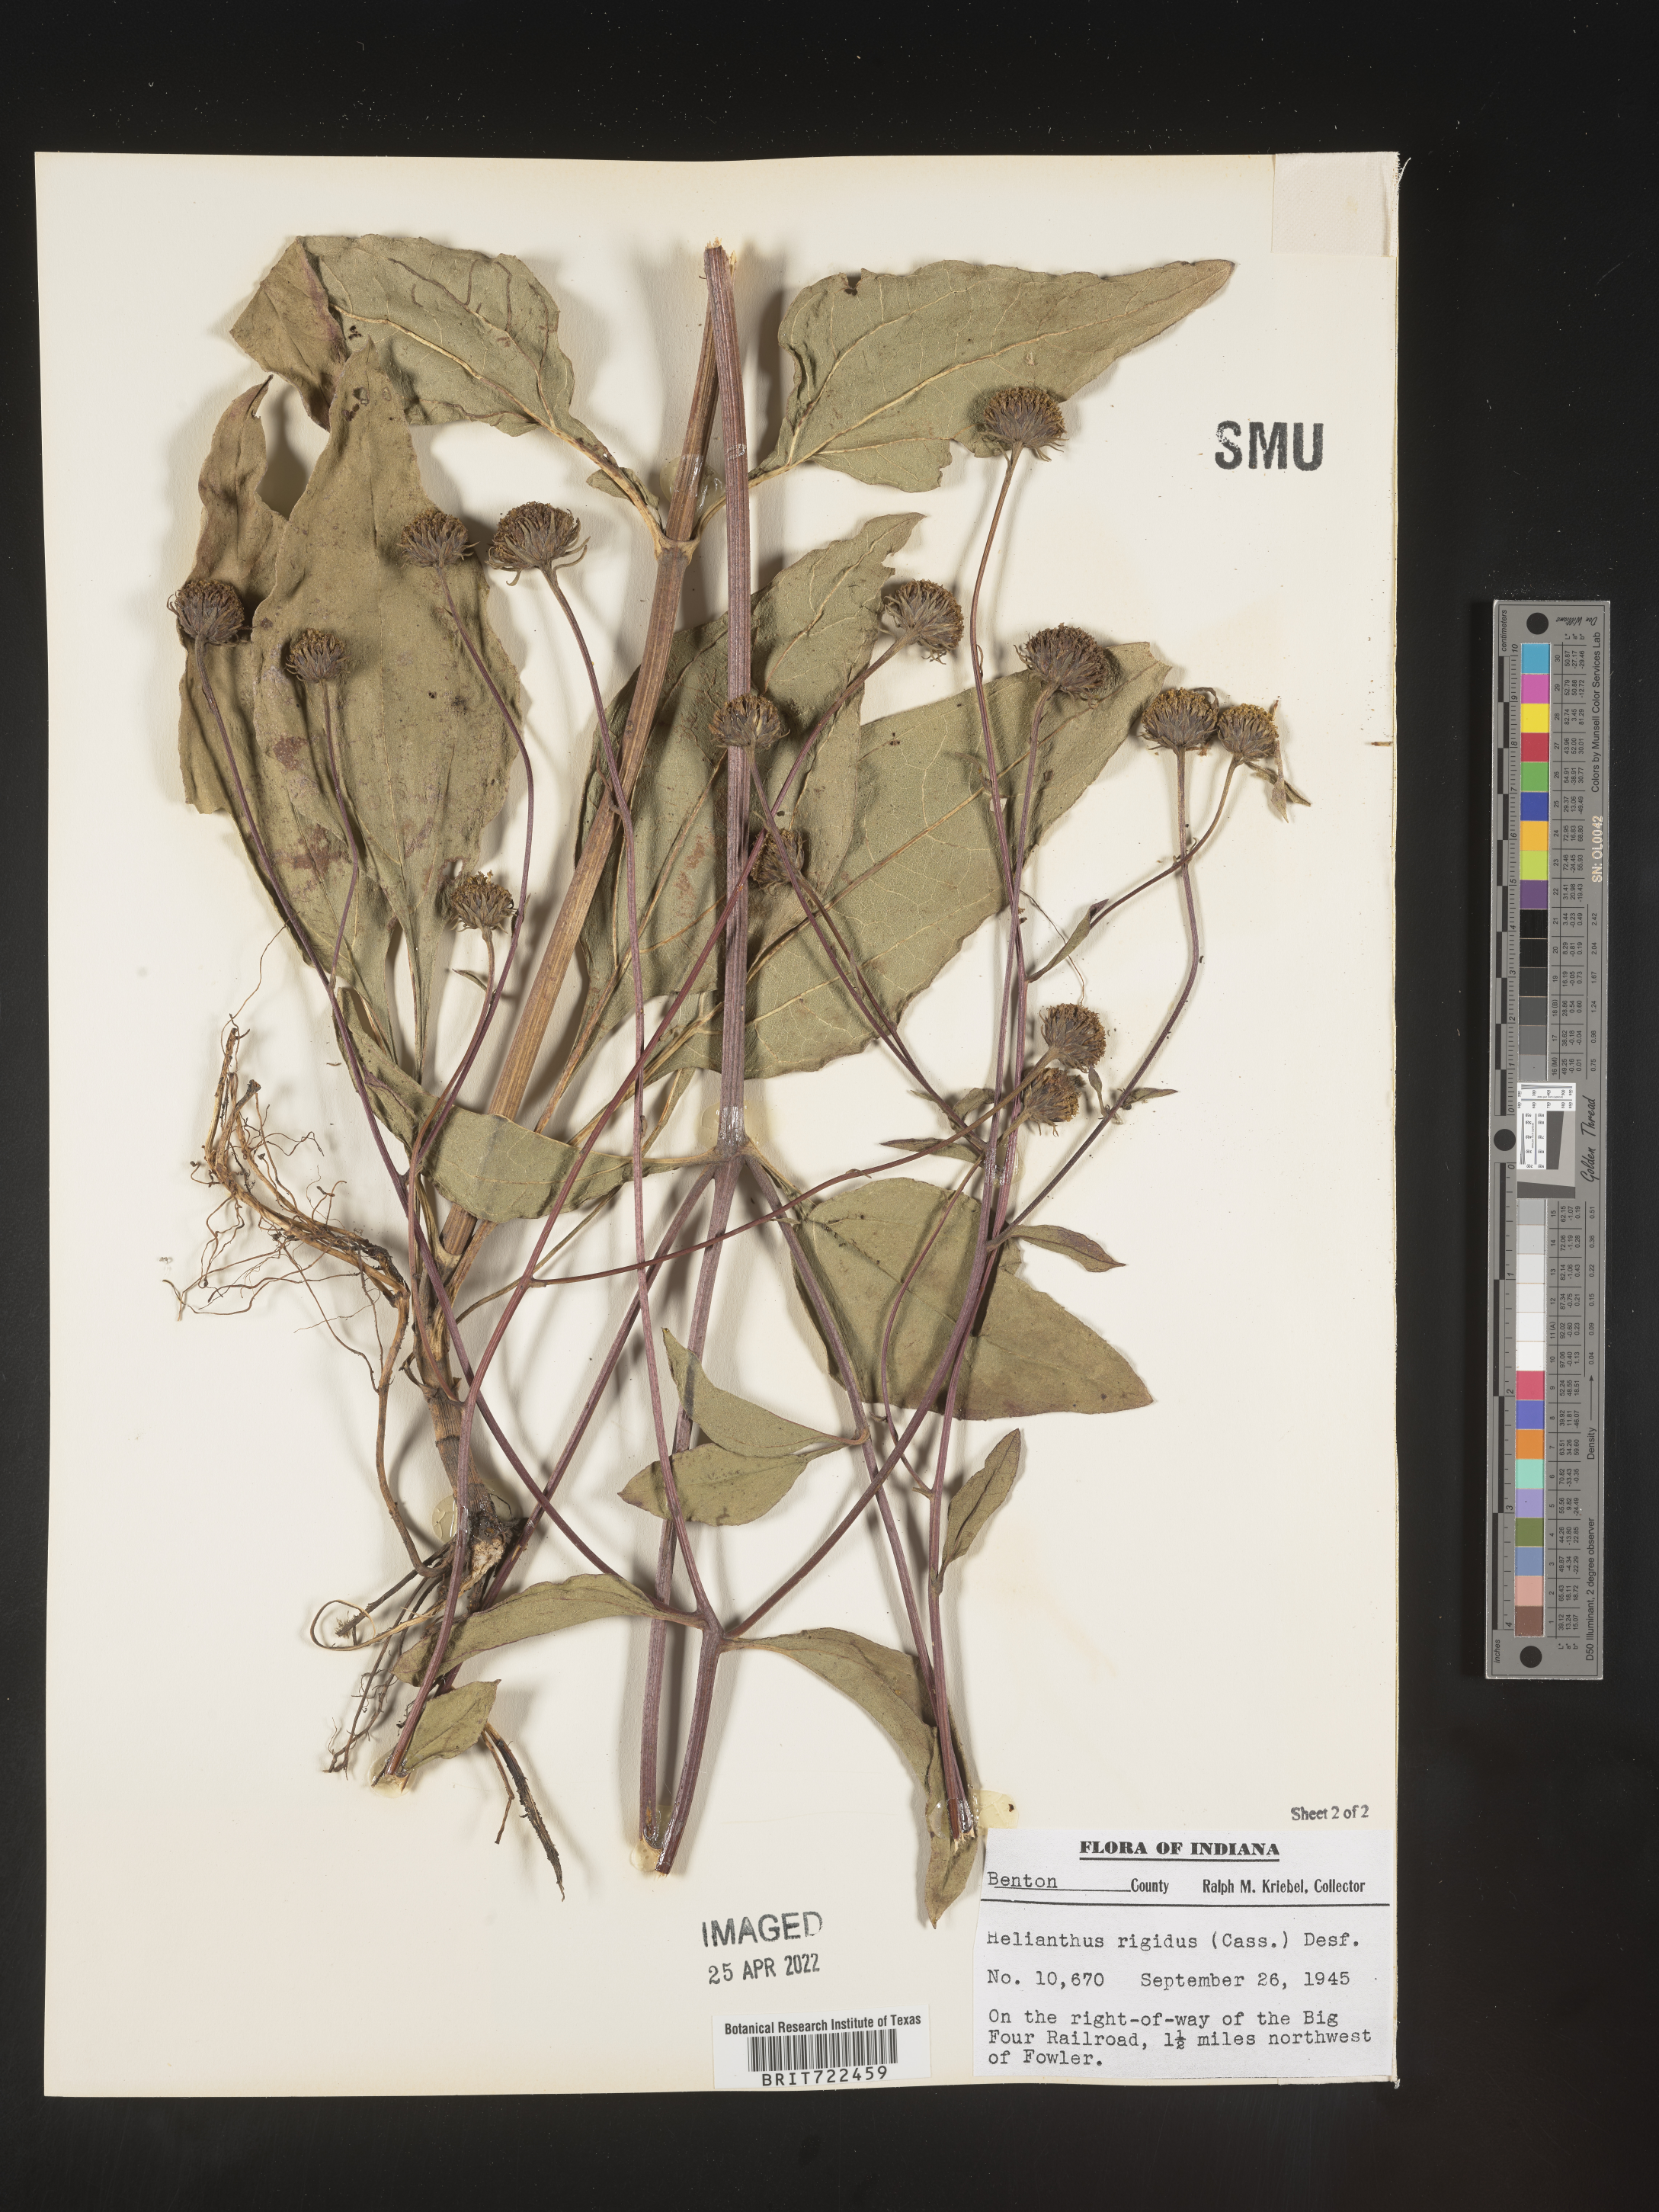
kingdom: Plantae
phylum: Tracheophyta
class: Magnoliopsida
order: Asterales
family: Asteraceae
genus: Helianthus
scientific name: Helianthus laetiflorus
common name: Perennial sunflower
